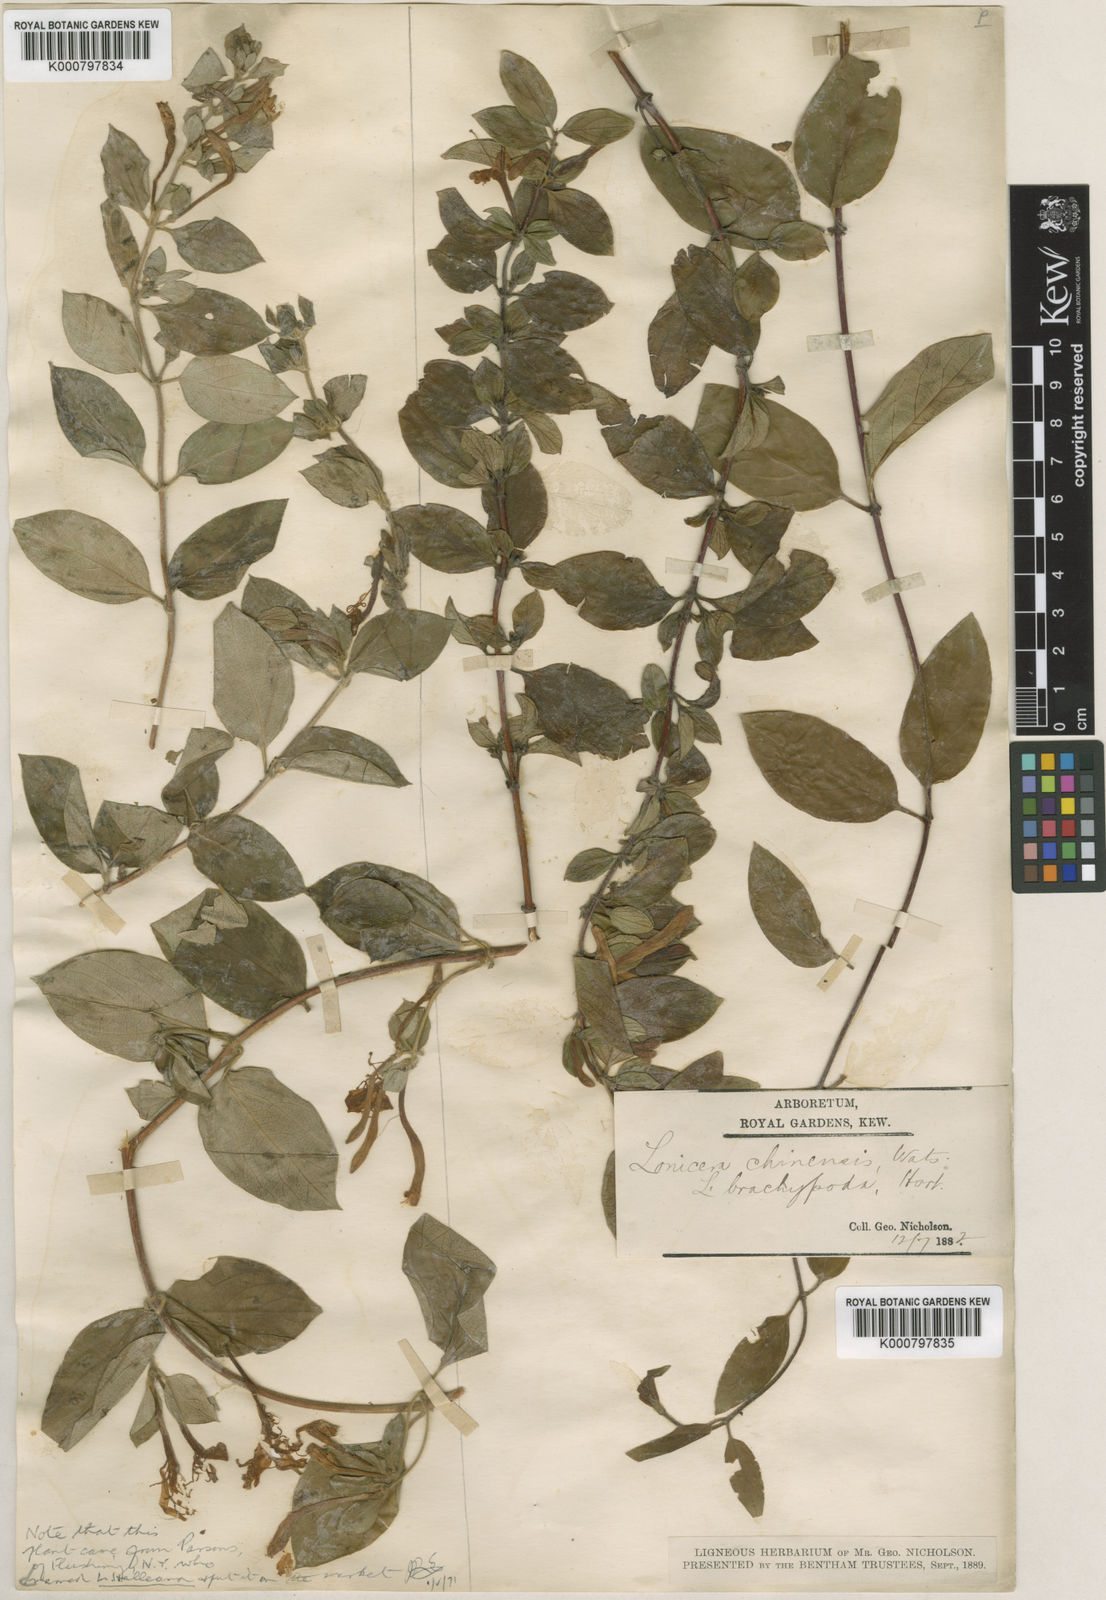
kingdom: Plantae
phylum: Tracheophyta
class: Magnoliopsida
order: Dipsacales
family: Caprifoliaceae
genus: Lonicera
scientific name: Lonicera japonica
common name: Japanese honeysuckle
